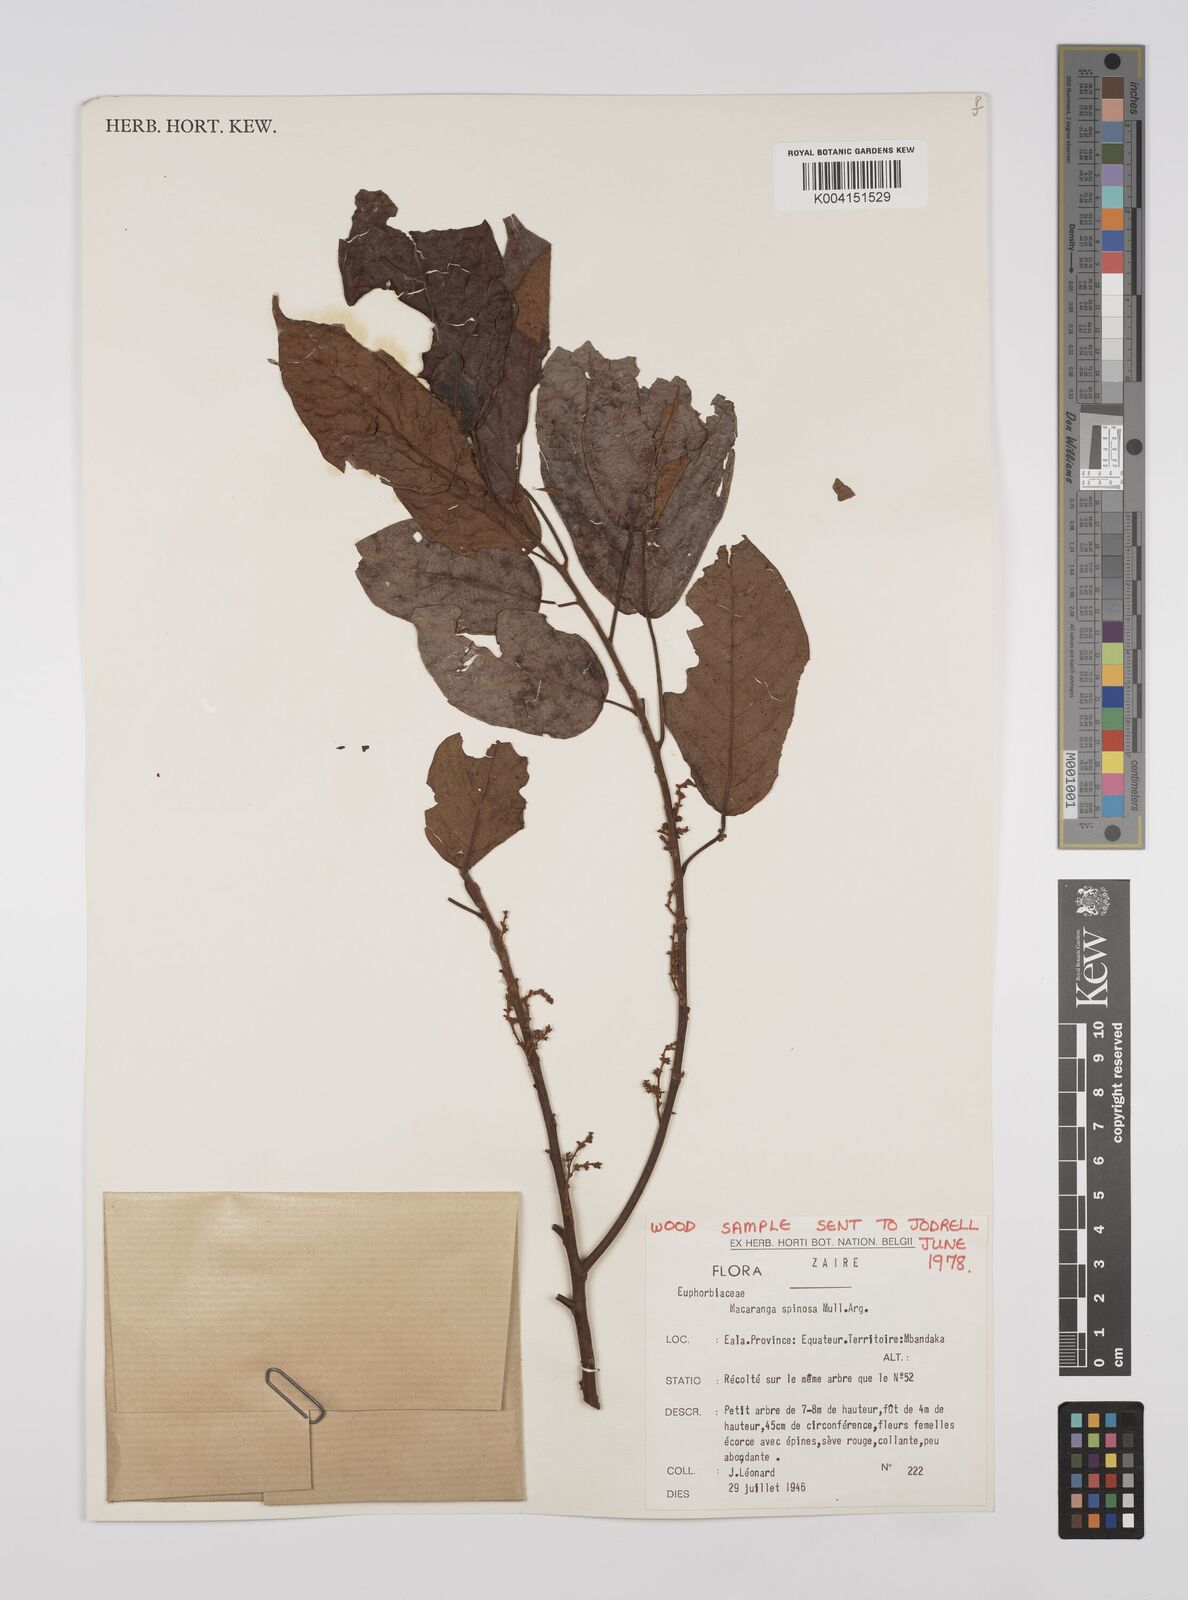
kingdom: Plantae
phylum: Tracheophyta
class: Magnoliopsida
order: Malpighiales
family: Euphorbiaceae
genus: Macaranga
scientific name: Macaranga spinosa
